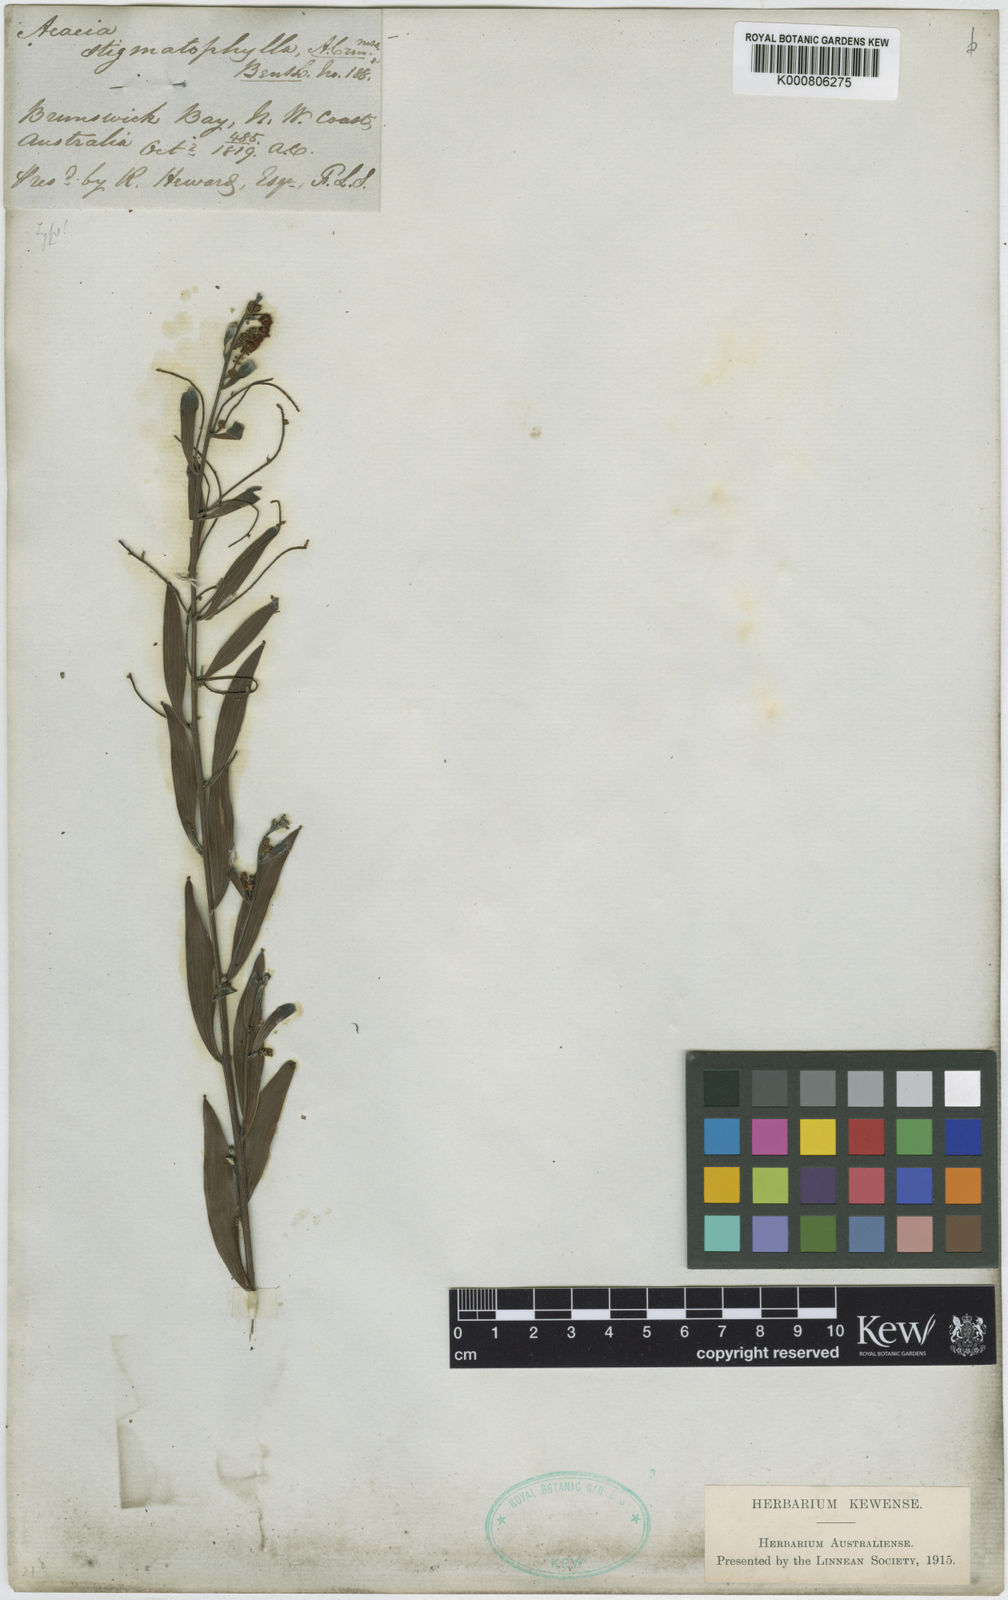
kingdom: Plantae
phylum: Tracheophyta
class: Magnoliopsida
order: Fabales
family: Fabaceae
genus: Acacia
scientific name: Acacia stigmatophylla
